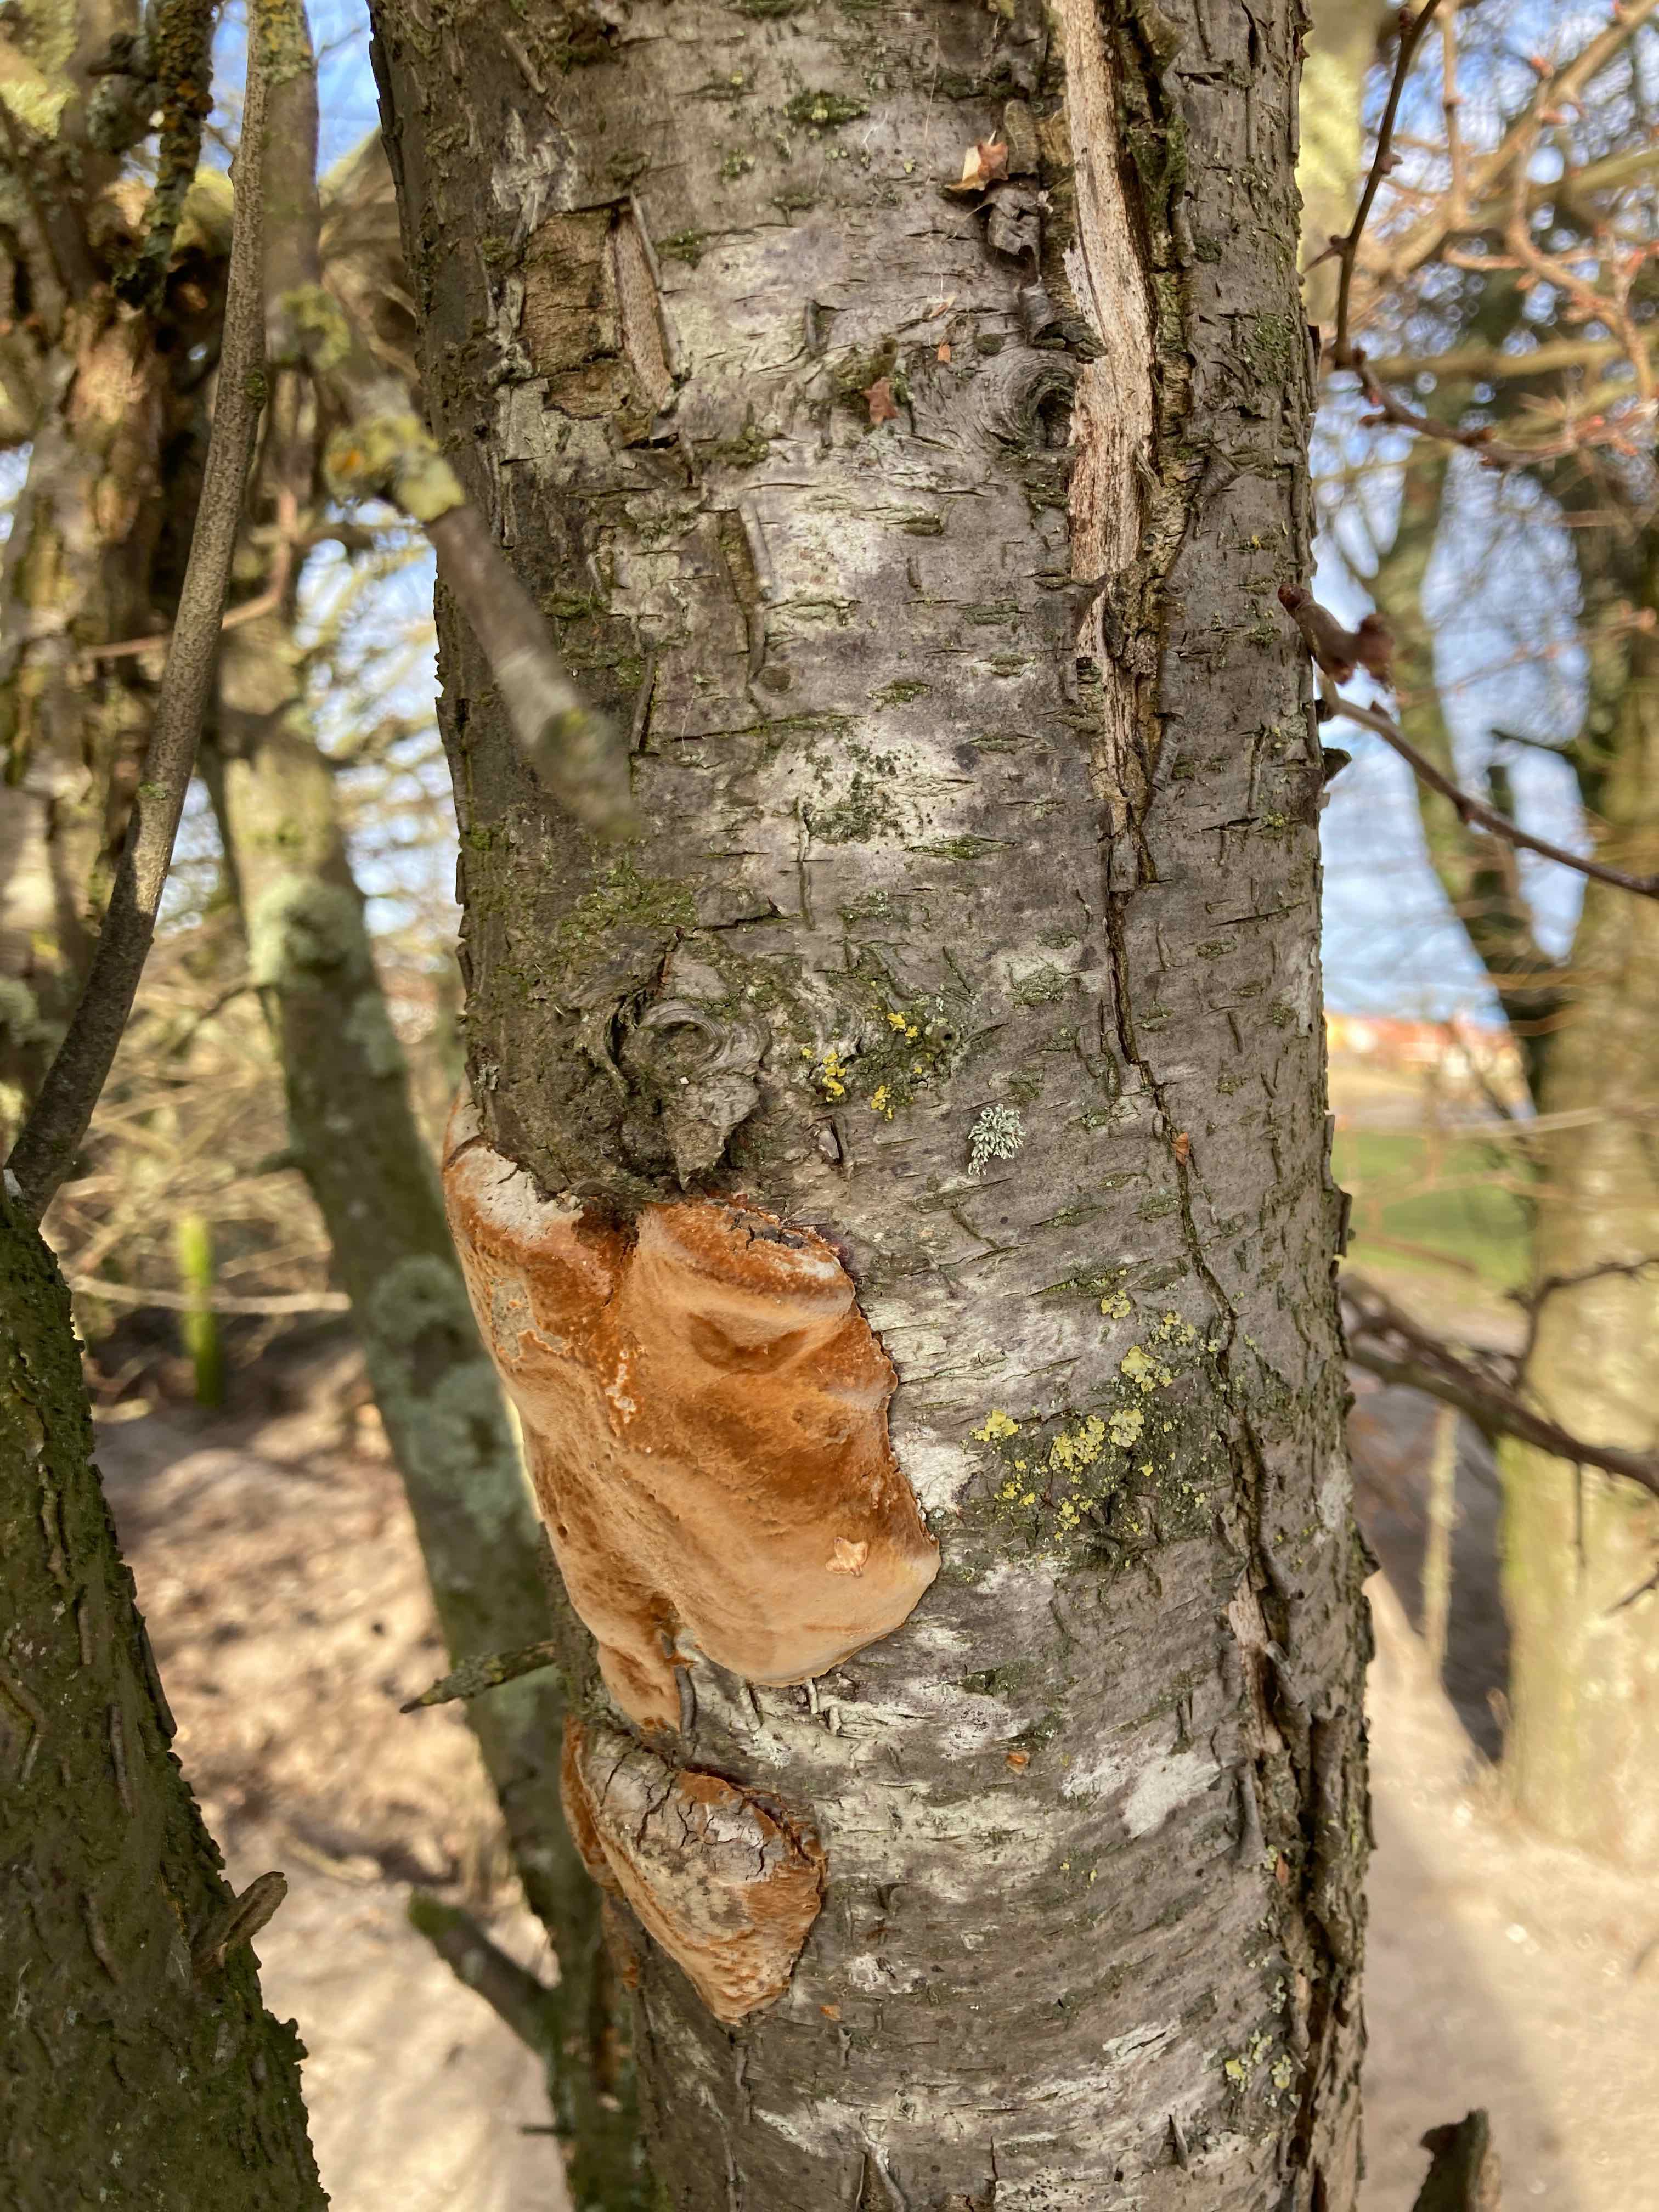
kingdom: Fungi
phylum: Basidiomycota
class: Agaricomycetes
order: Hymenochaetales
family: Hymenochaetaceae
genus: Phellinus
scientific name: Phellinus pomaceus
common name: blomme-ildporesvamp
